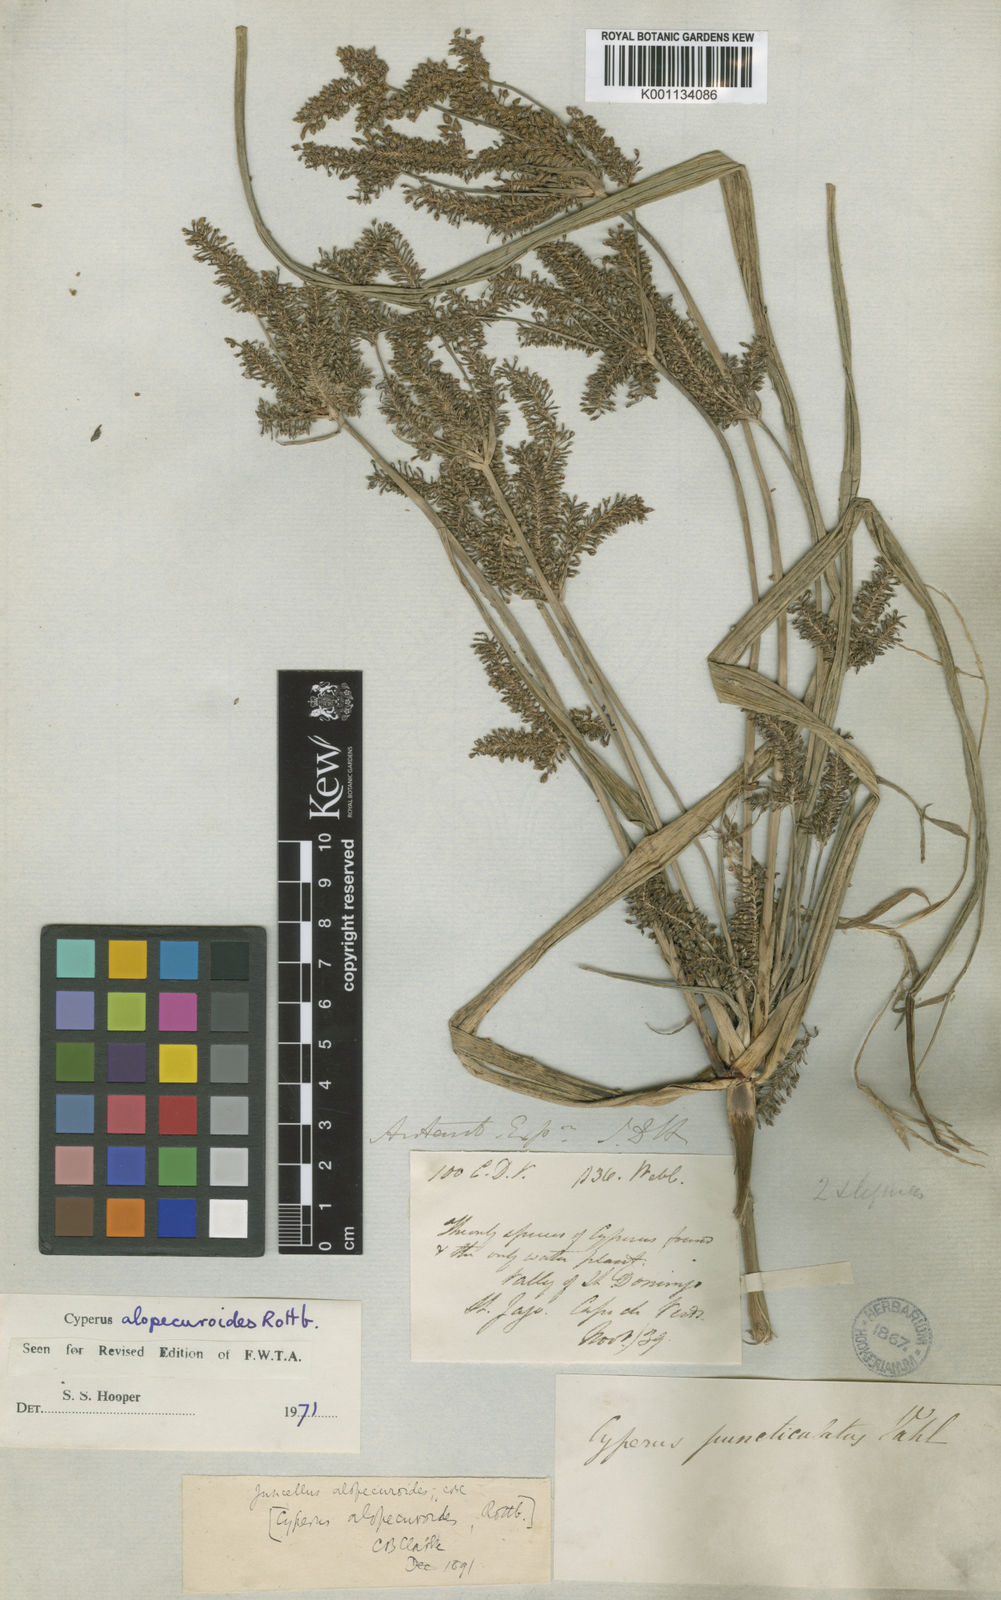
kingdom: Plantae
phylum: Tracheophyta
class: Liliopsida
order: Poales
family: Cyperaceae
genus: Cyperus
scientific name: Cyperus alopecuroides
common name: Foxtail flatsedge
